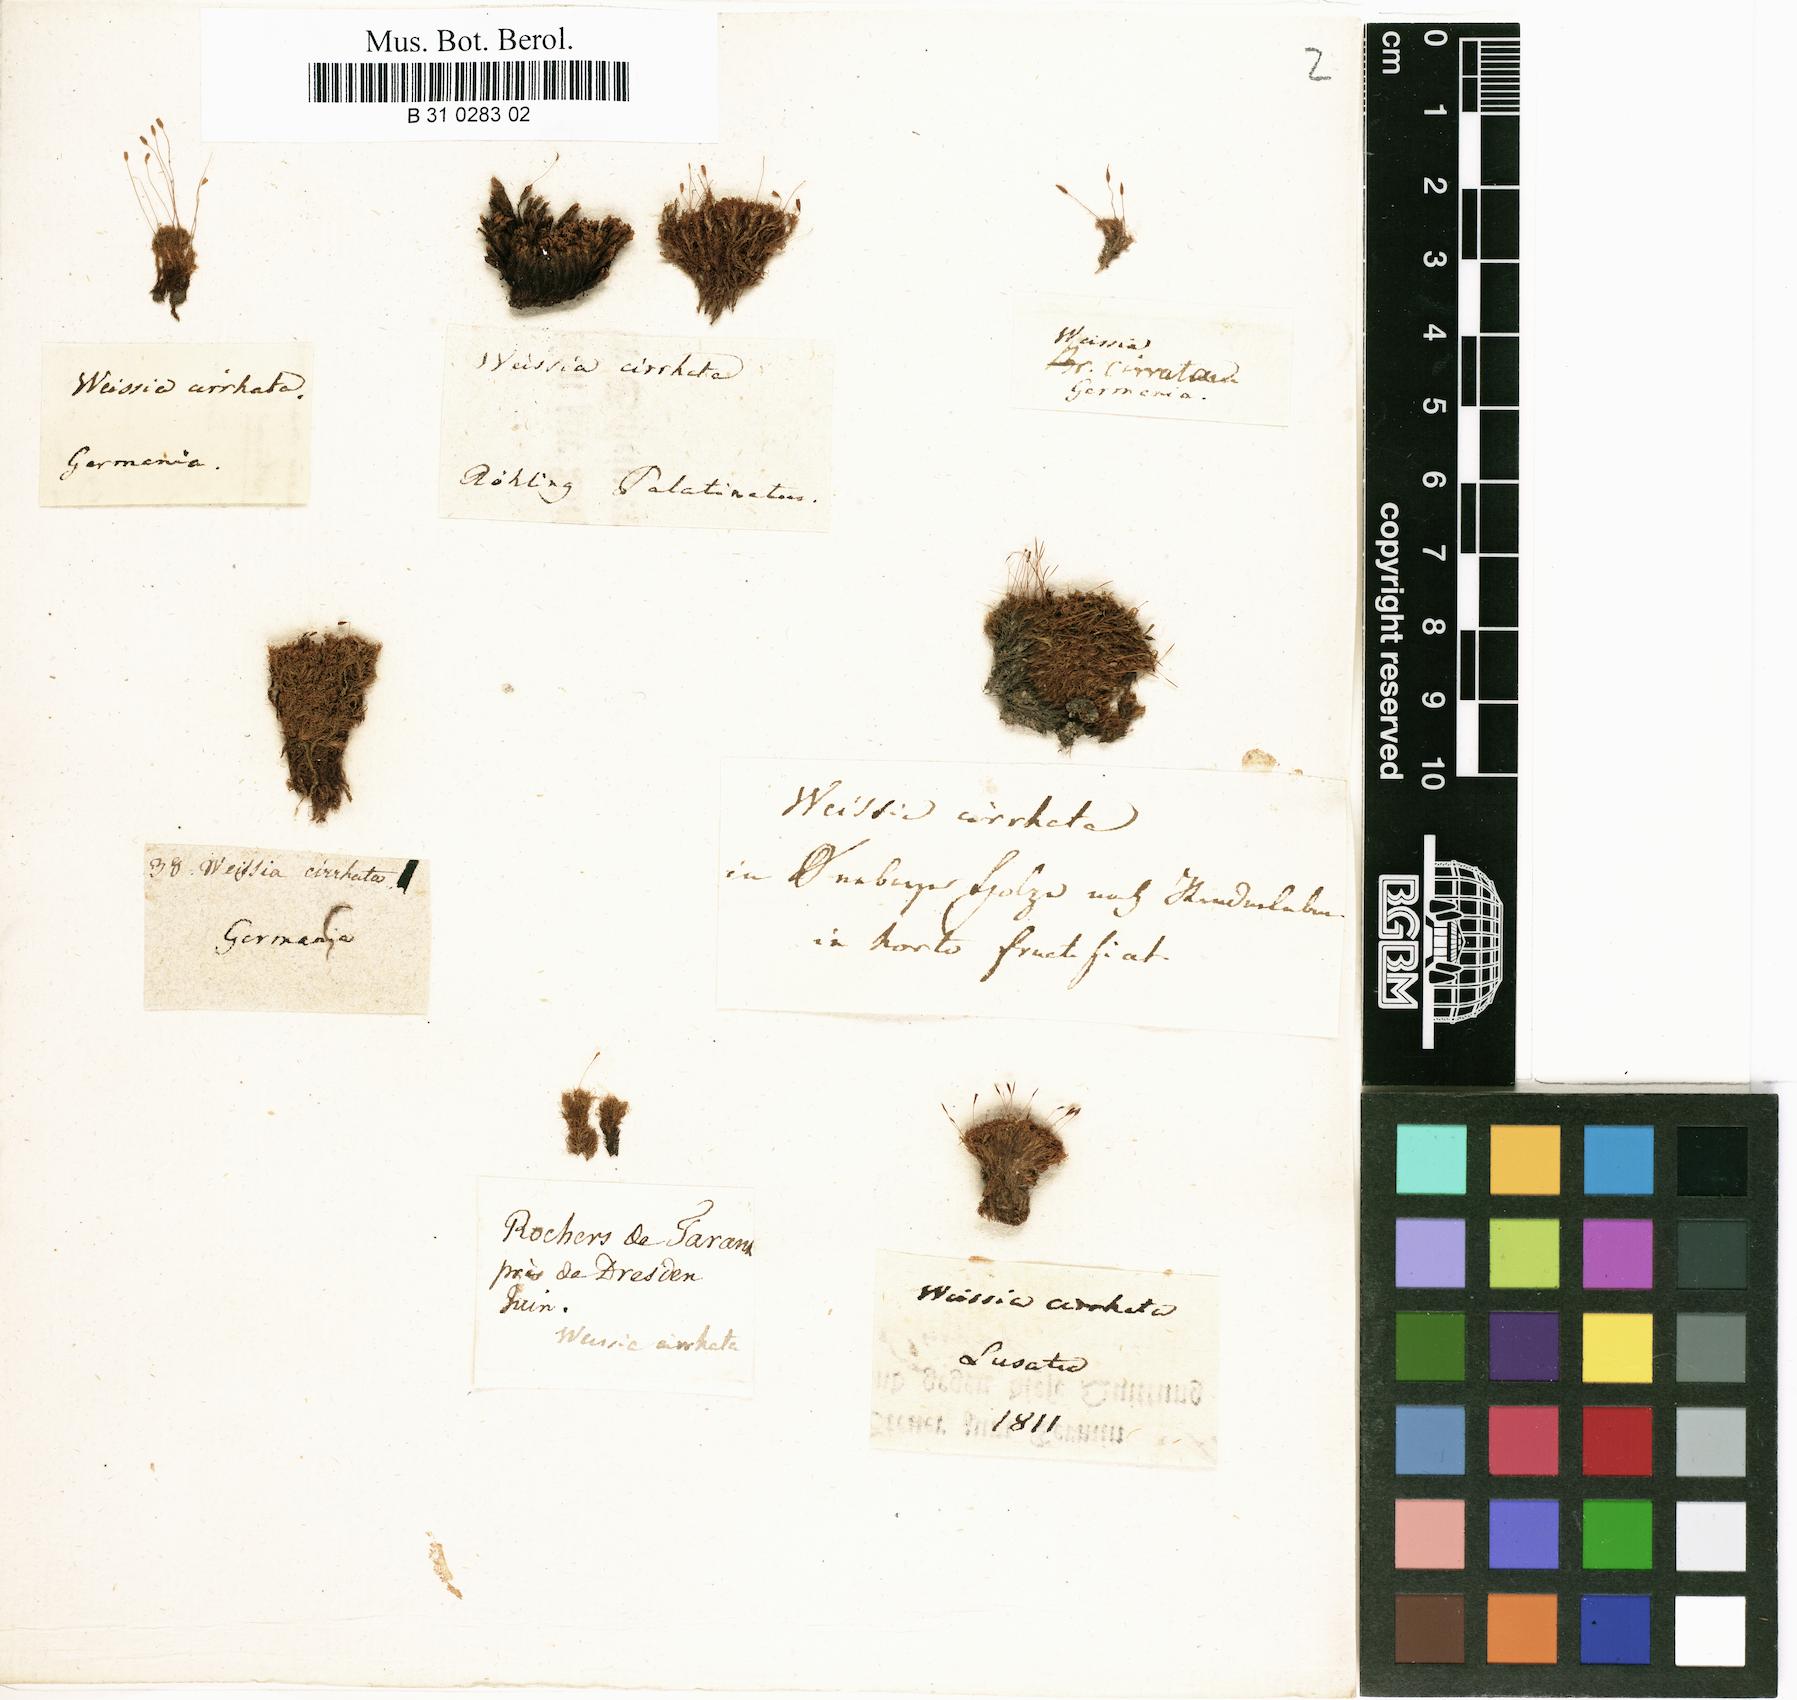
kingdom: Plantae
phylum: Bryophyta
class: Bryopsida
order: Dicranales
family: Rhabdoweisiaceae
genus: Dicranoweisia
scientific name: Dicranoweisia cirrata
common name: Common pincushion
